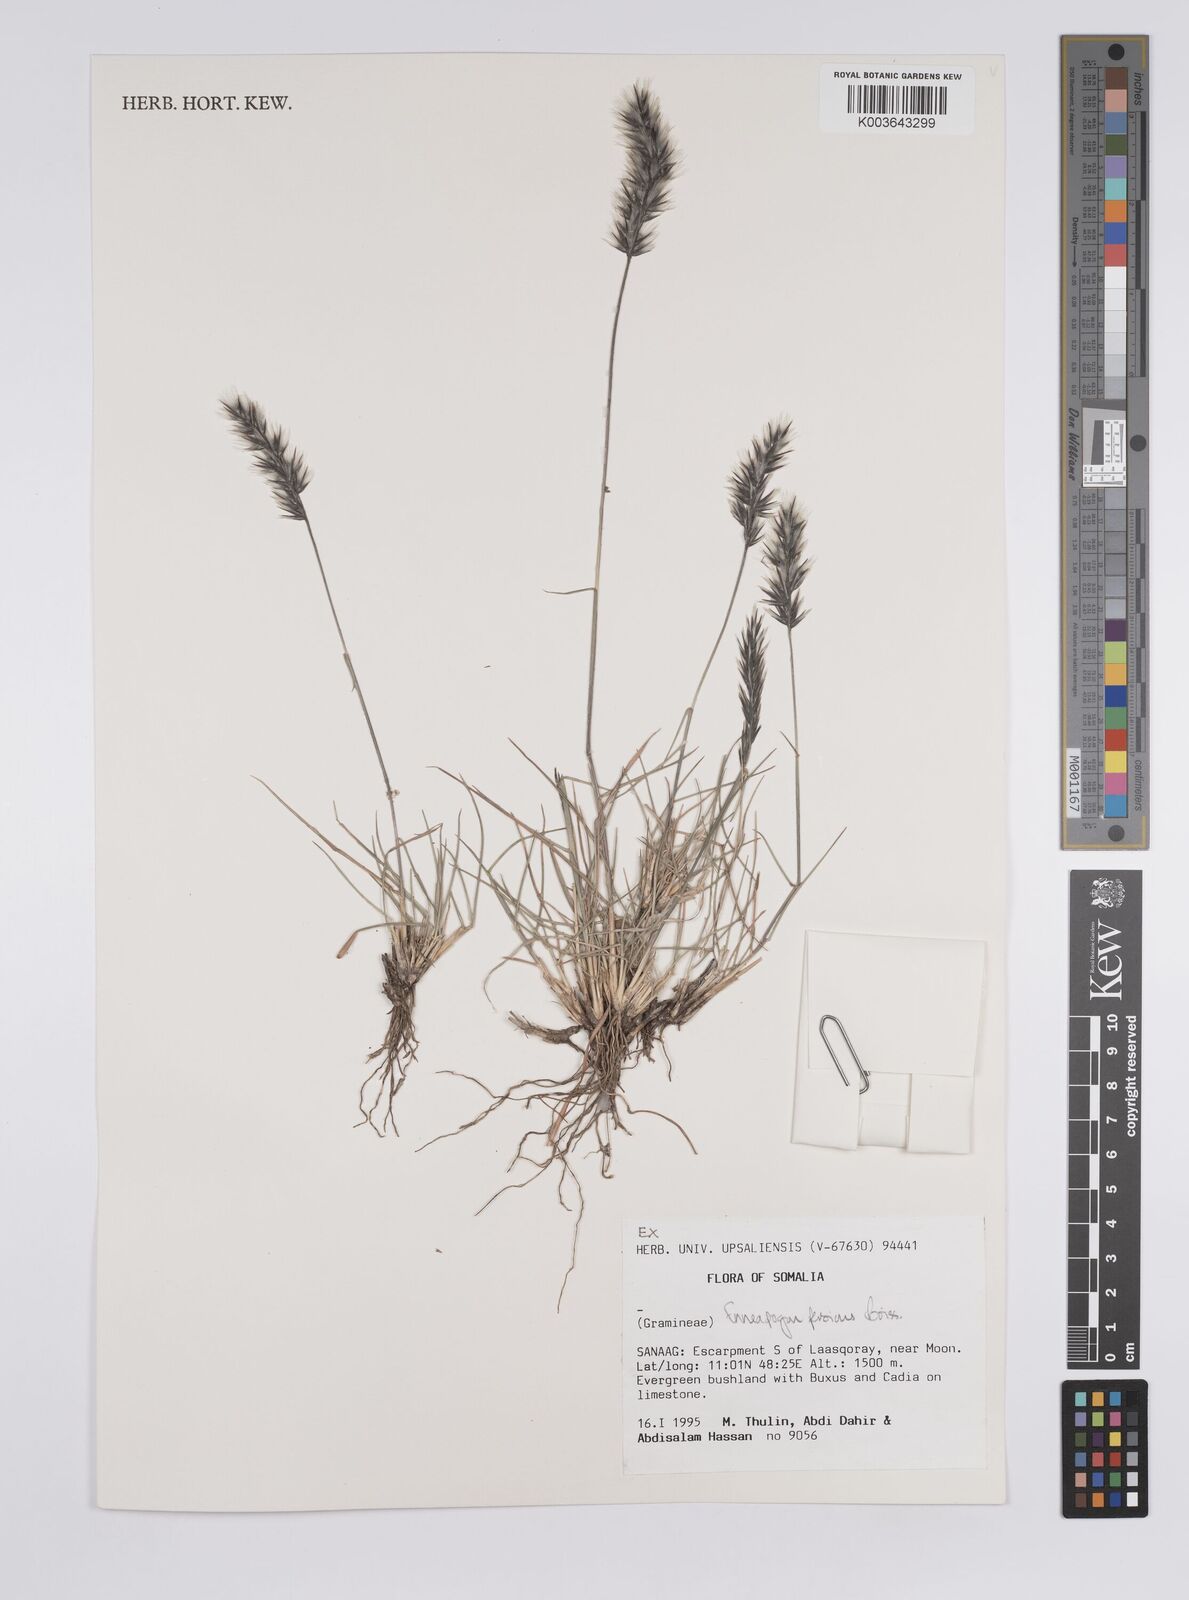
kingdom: Plantae
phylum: Tracheophyta
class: Liliopsida
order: Poales
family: Poaceae
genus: Enneapogon
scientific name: Enneapogon persicus
